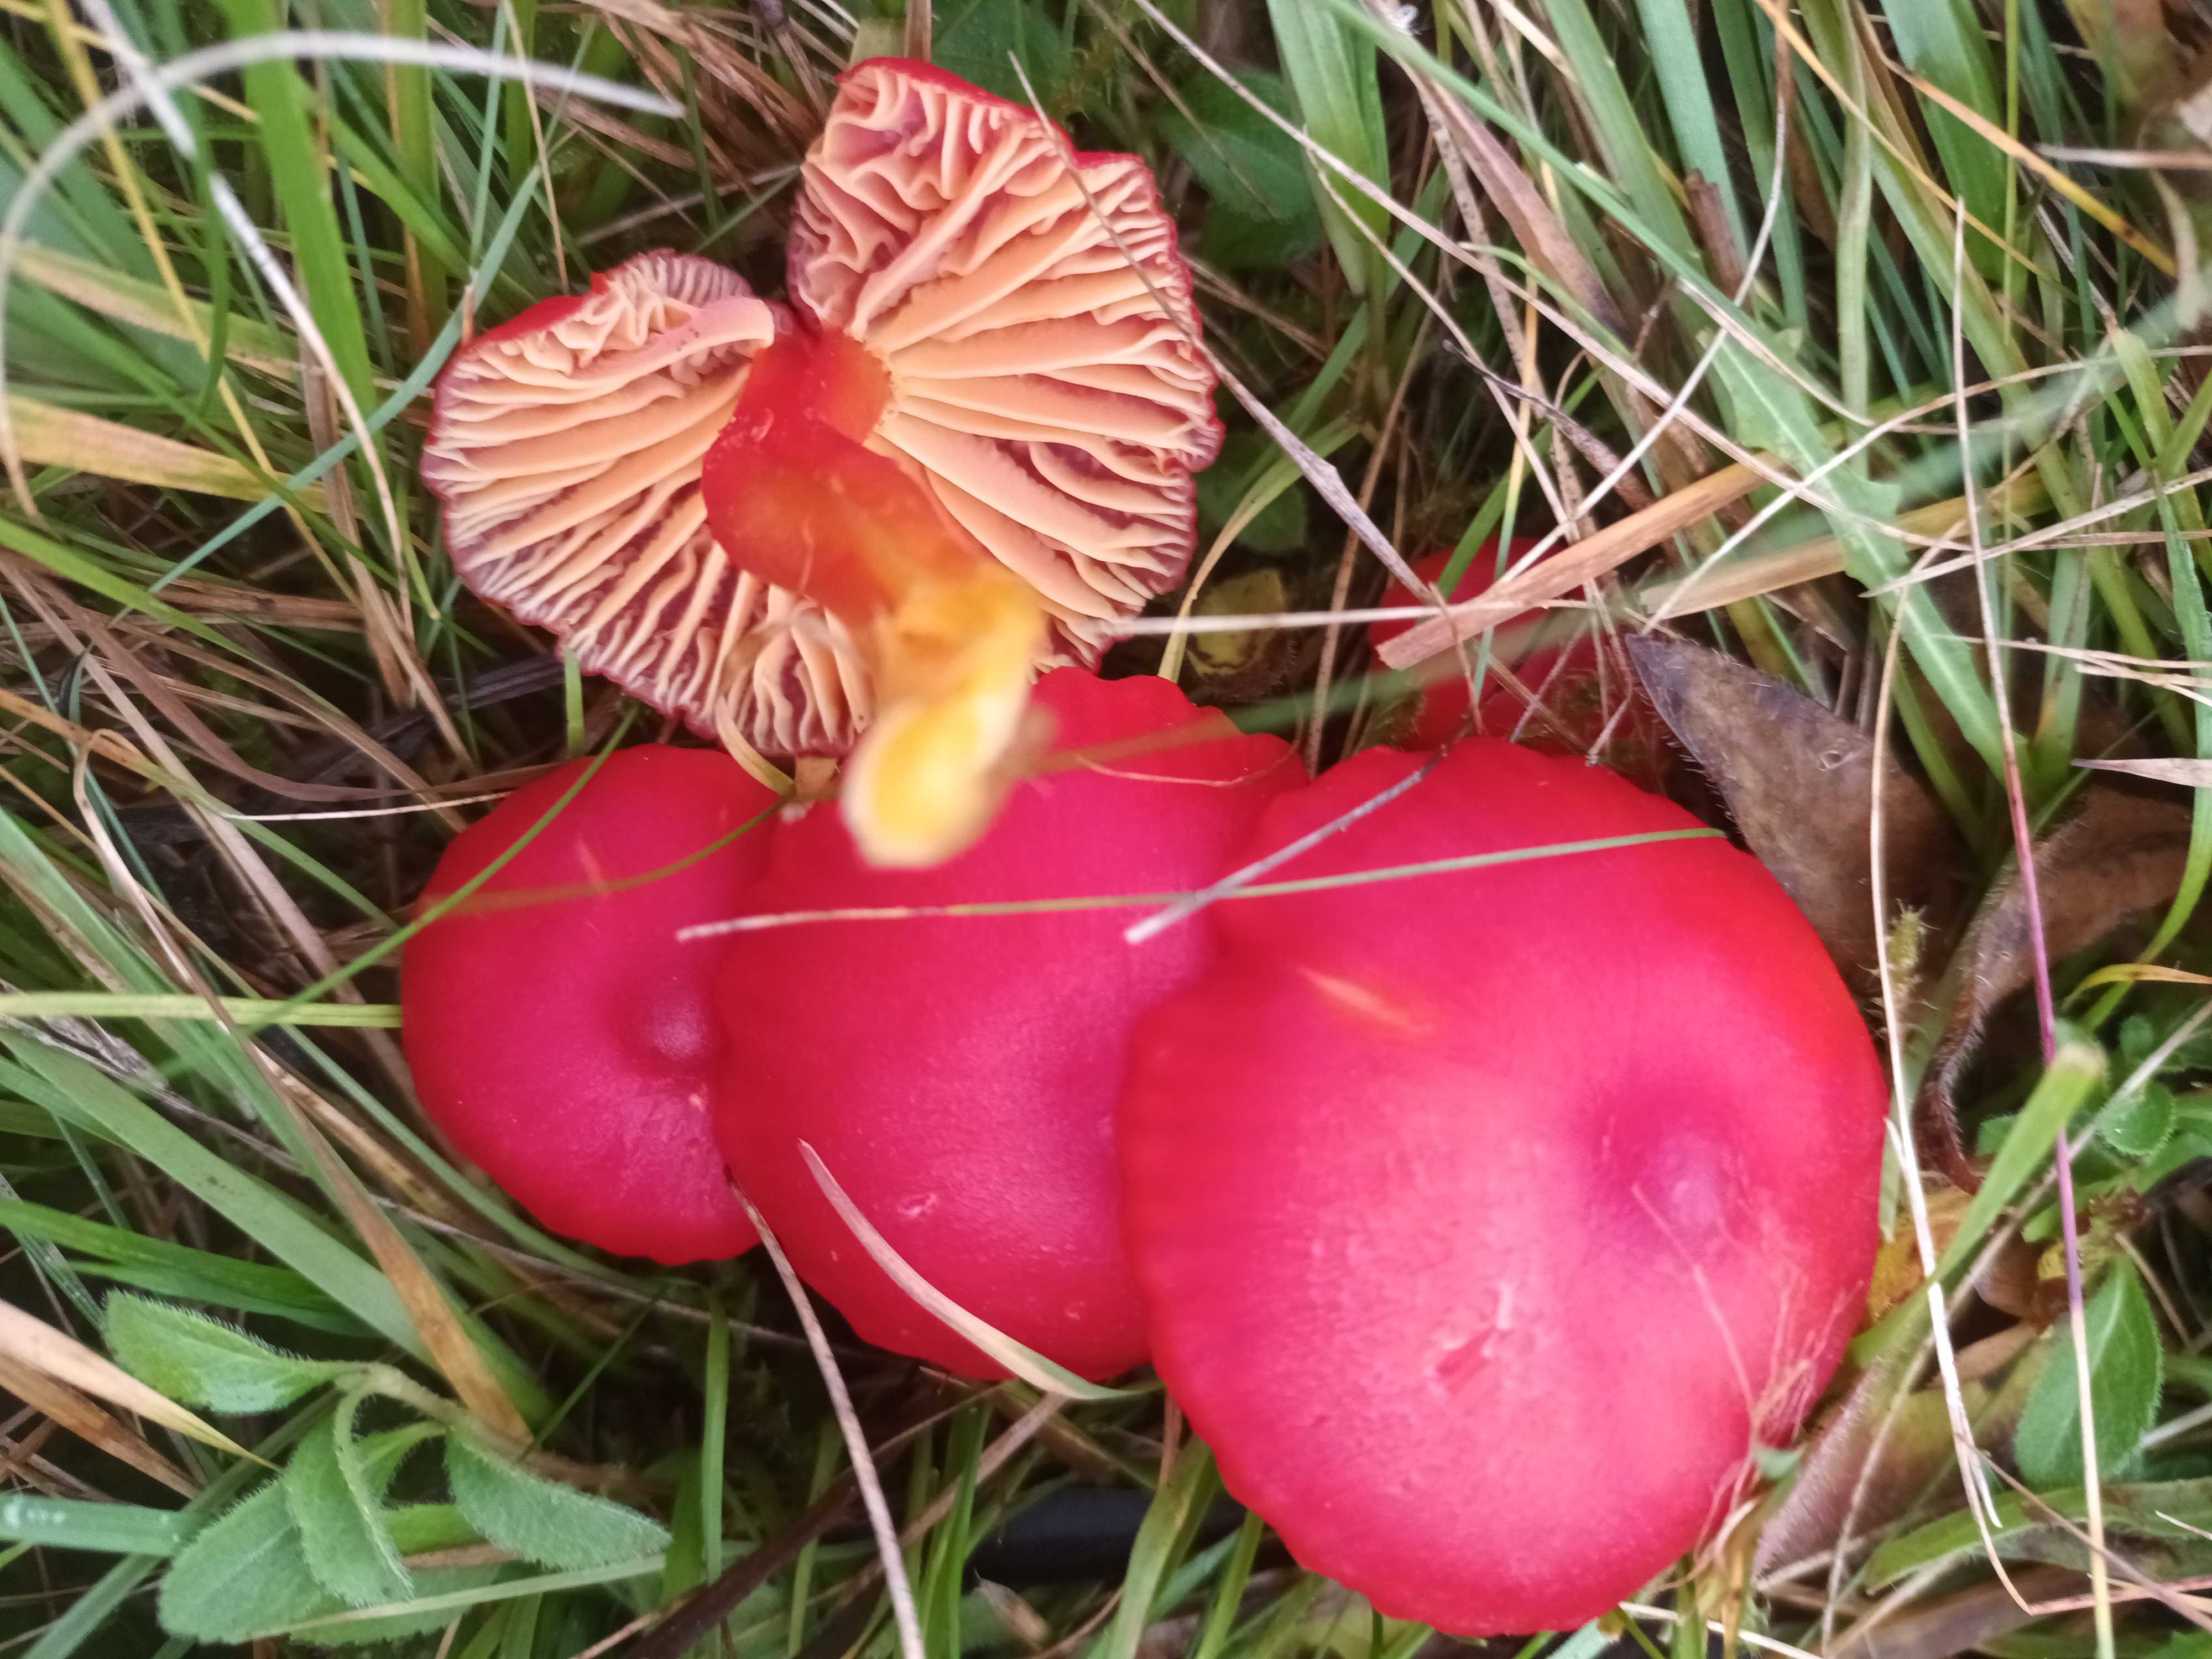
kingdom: Fungi
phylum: Basidiomycota
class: Agaricomycetes
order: Agaricales
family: Hygrophoraceae
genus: Hygrocybe
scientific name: Hygrocybe coccinea
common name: cinnober-vokshat
